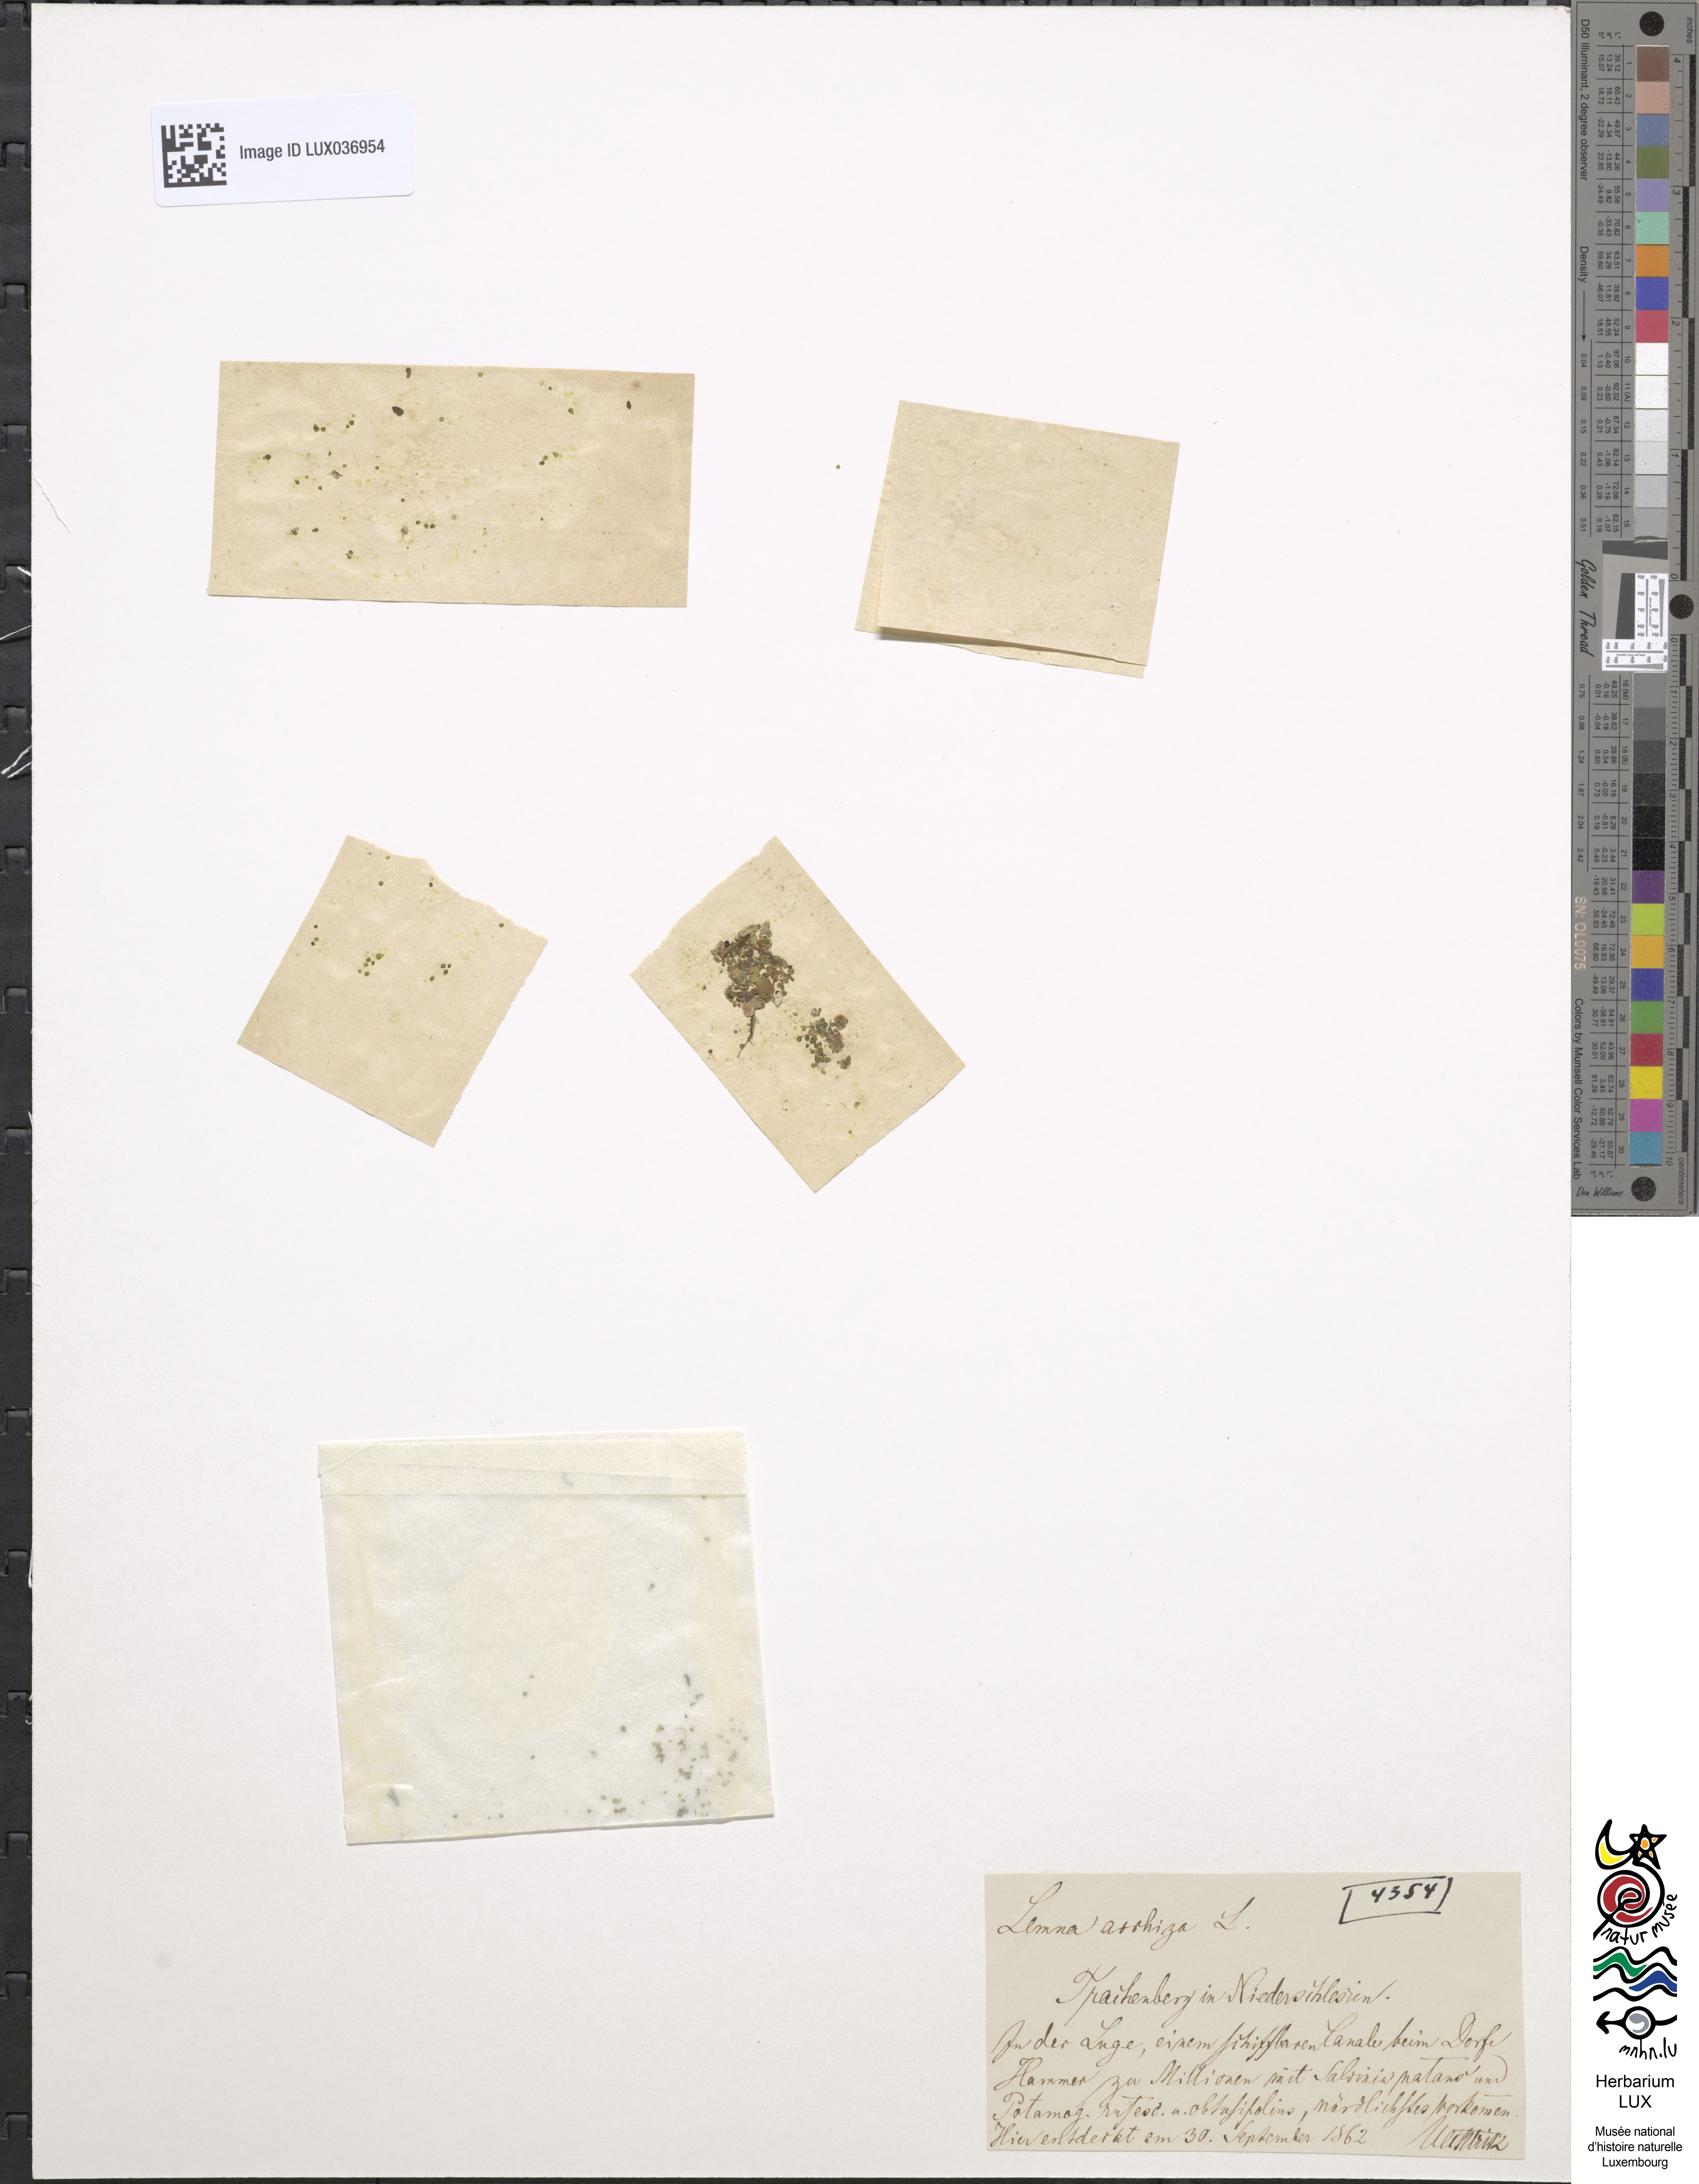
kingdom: Plantae
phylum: Tracheophyta
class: Liliopsida
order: Alismatales
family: Araceae
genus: Wolffia
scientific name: Wolffia arrhiza
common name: Rootless duckweed
